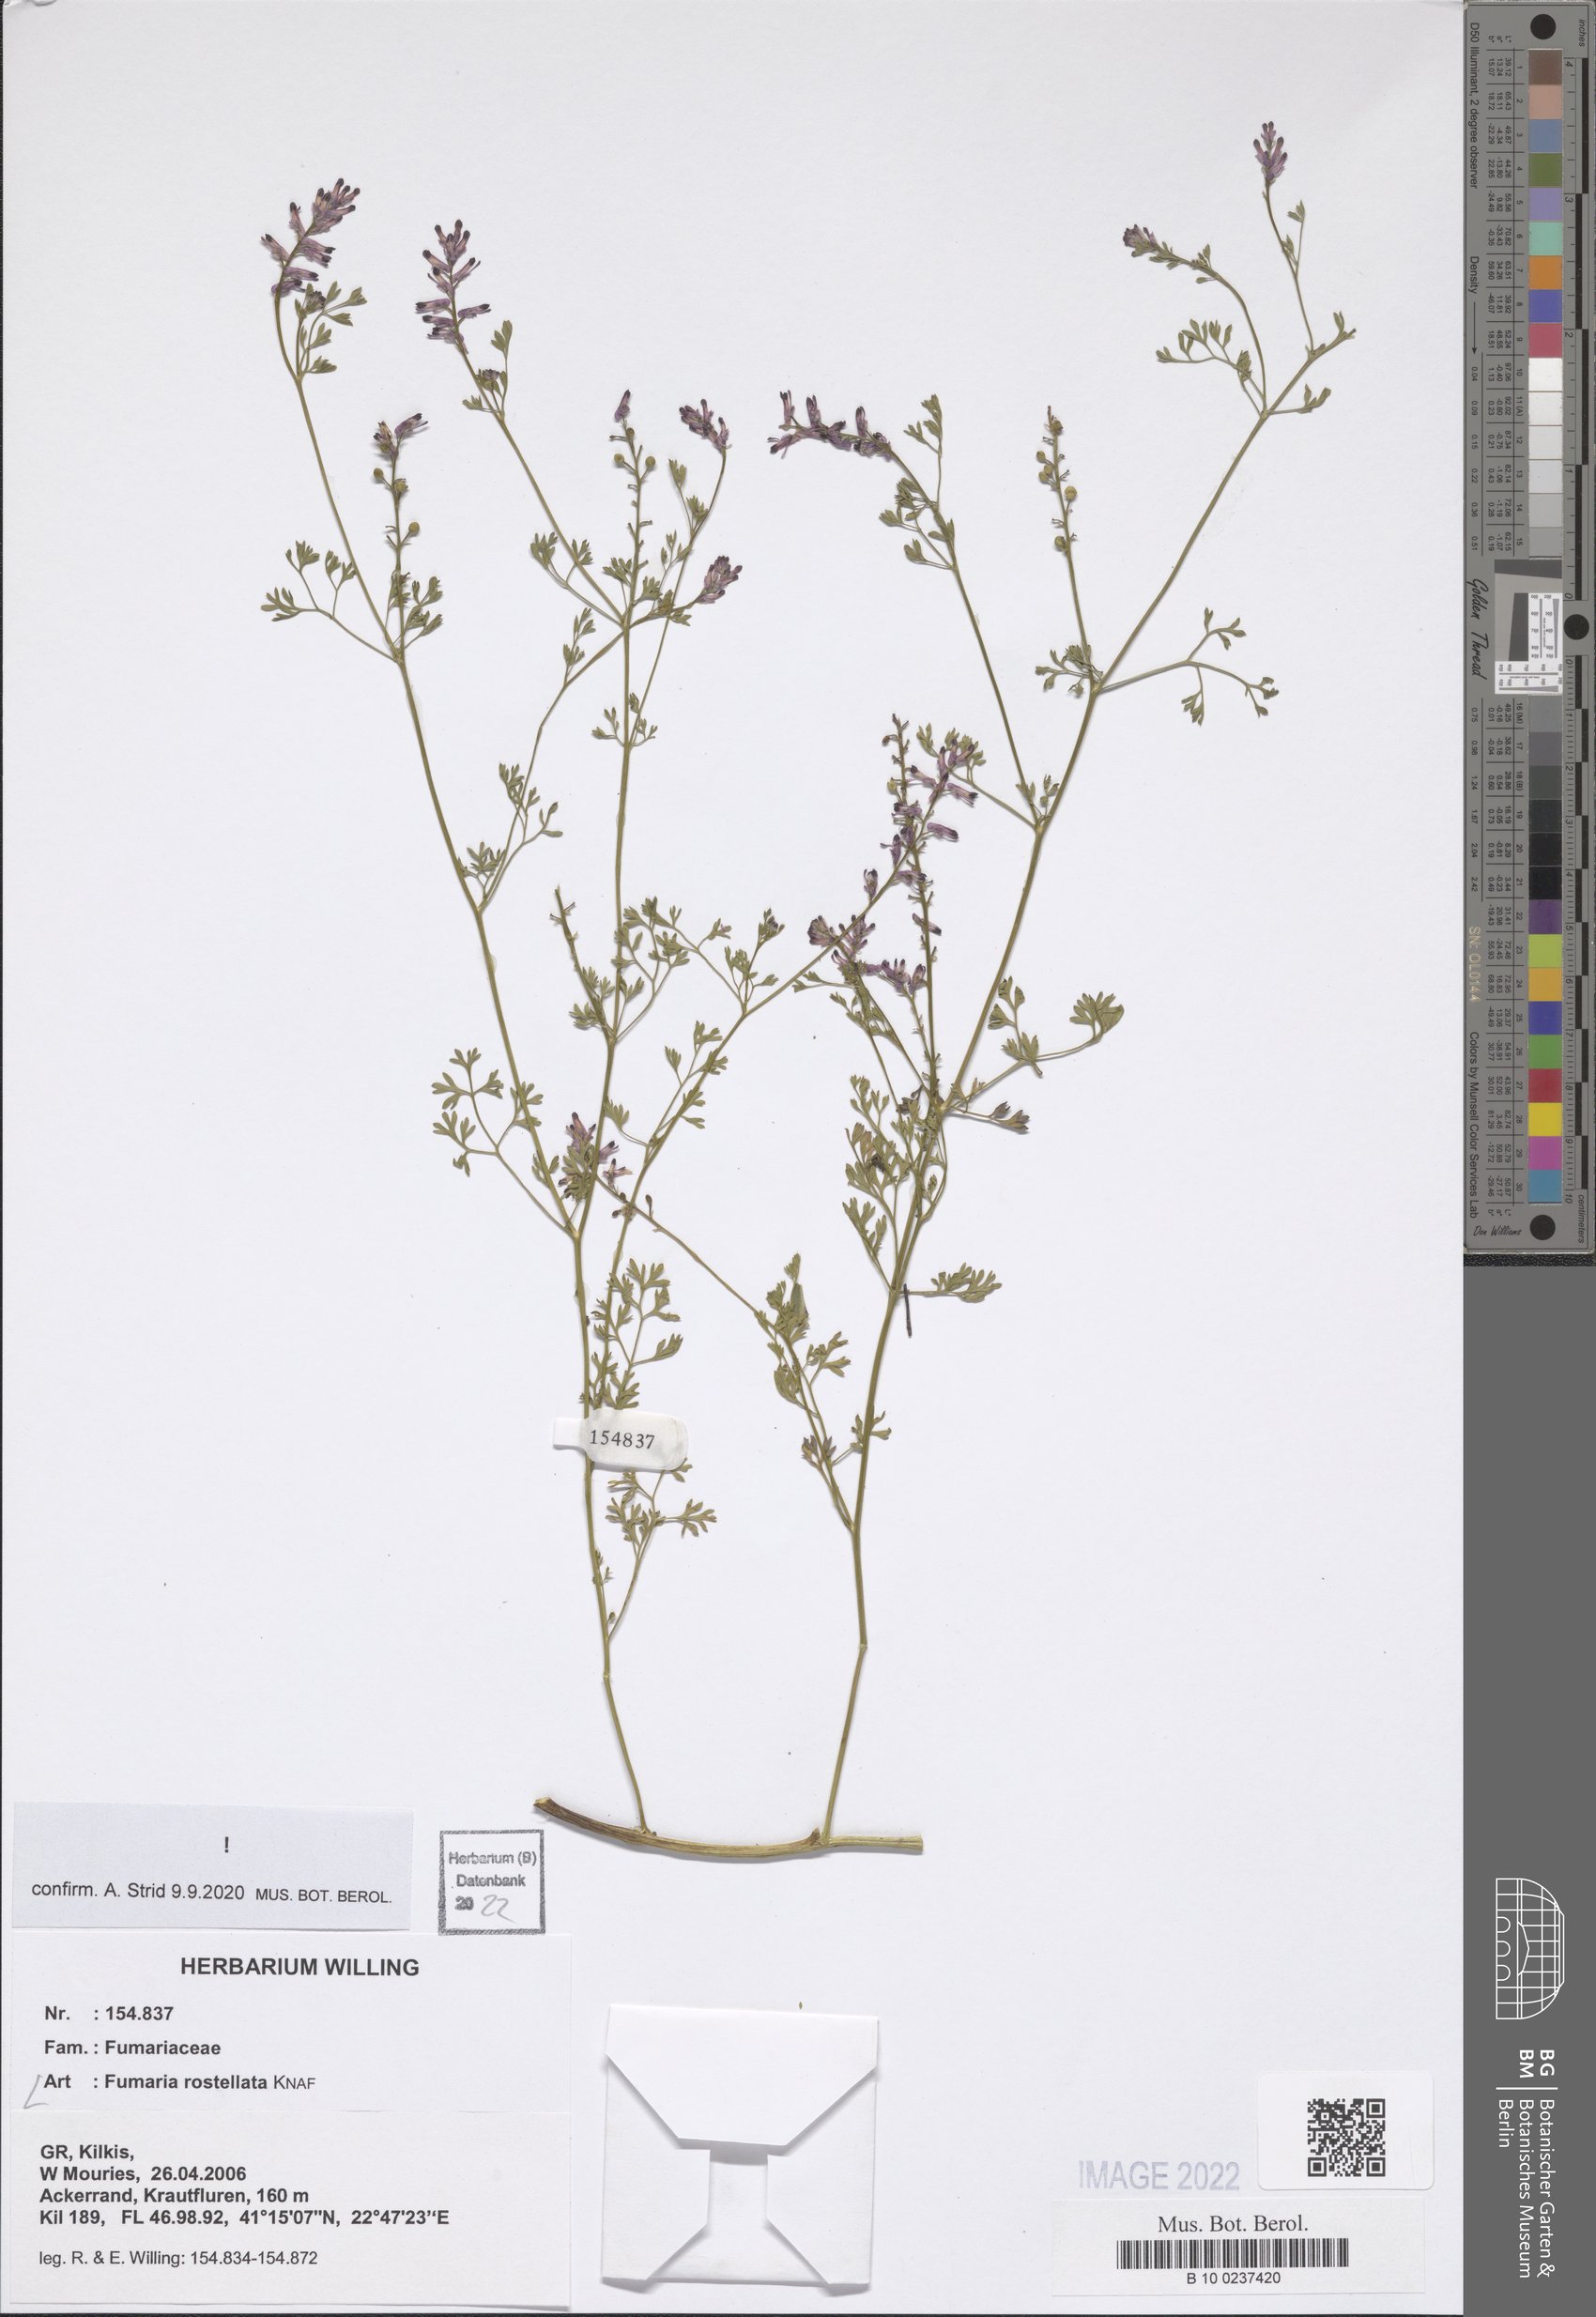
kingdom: Plantae
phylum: Tracheophyta
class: Magnoliopsida
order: Ranunculales
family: Papaveraceae
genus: Fumaria
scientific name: Fumaria rostellata
